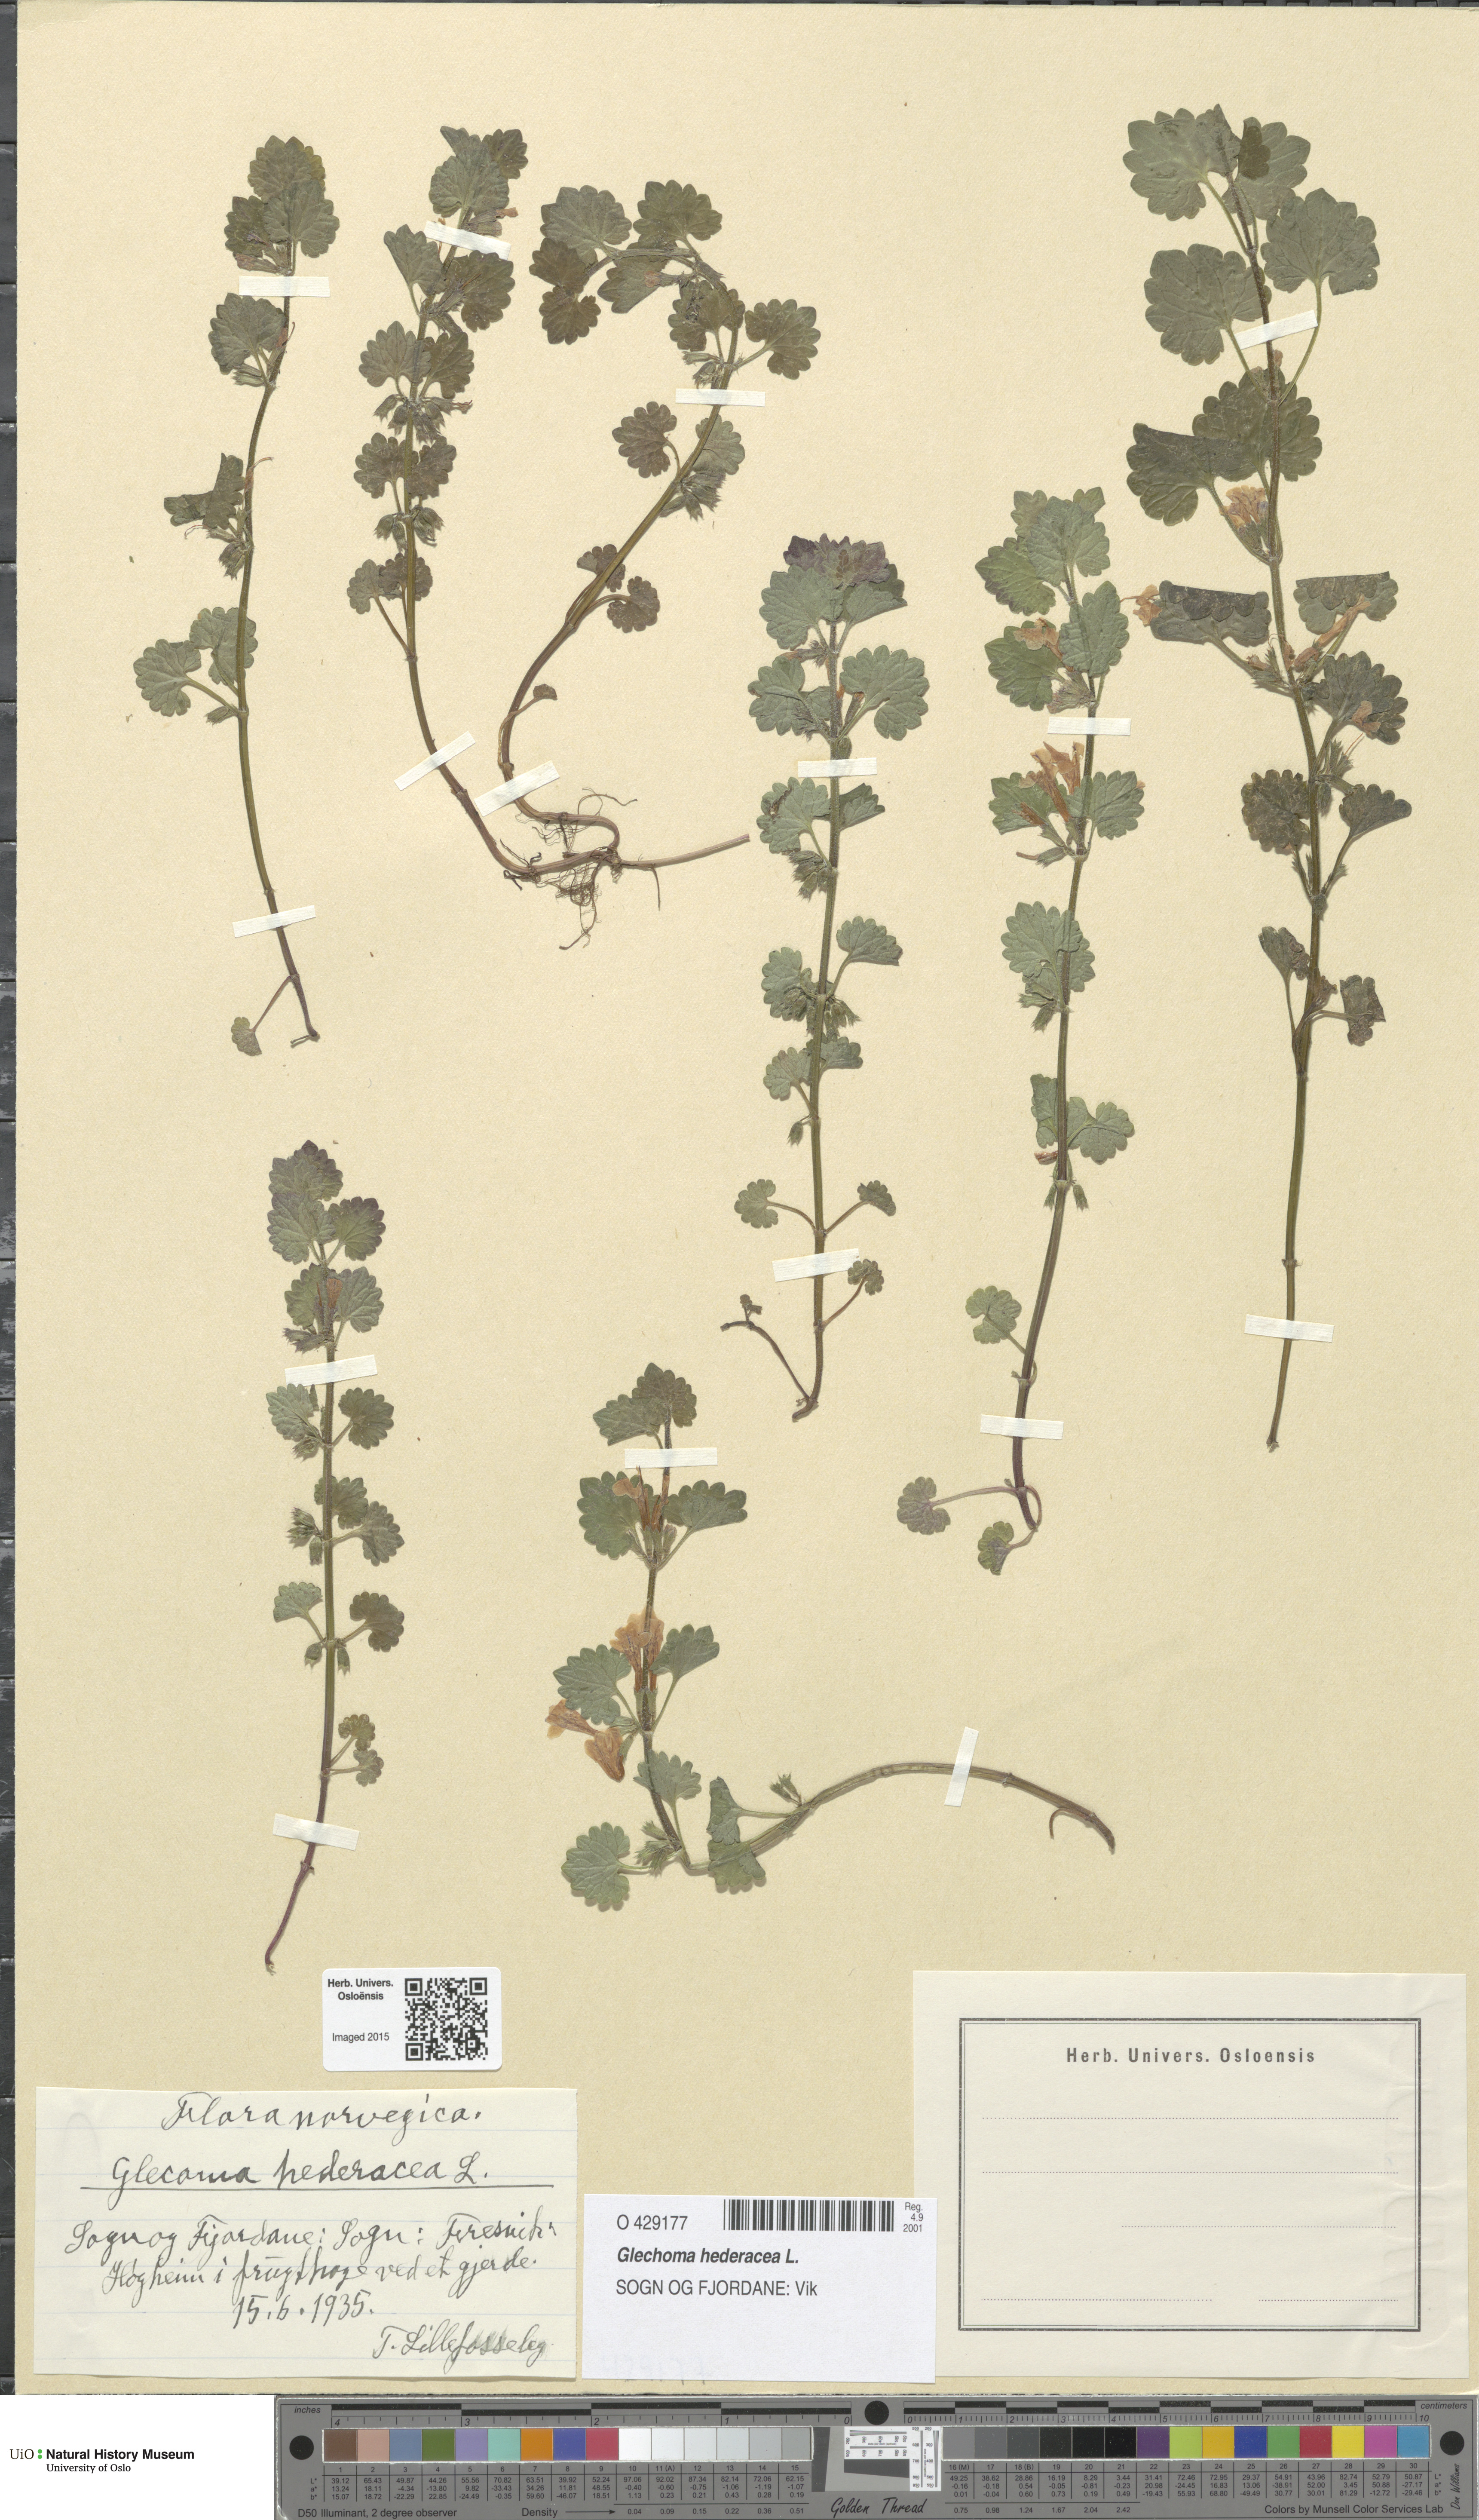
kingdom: Plantae
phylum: Tracheophyta
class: Magnoliopsida
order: Lamiales
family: Lamiaceae
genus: Glechoma
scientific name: Glechoma hederacea
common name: Ground ivy
